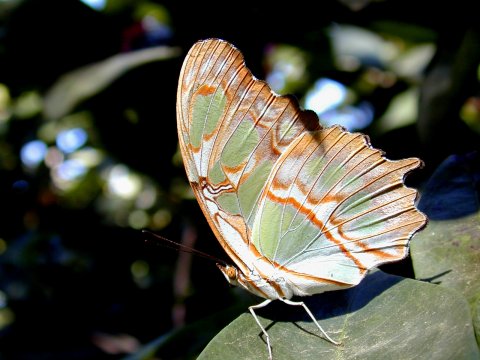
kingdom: Animalia
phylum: Arthropoda
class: Insecta
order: Lepidoptera
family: Nymphalidae
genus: Siproeta
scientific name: Siproeta stelenes
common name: Malachite
